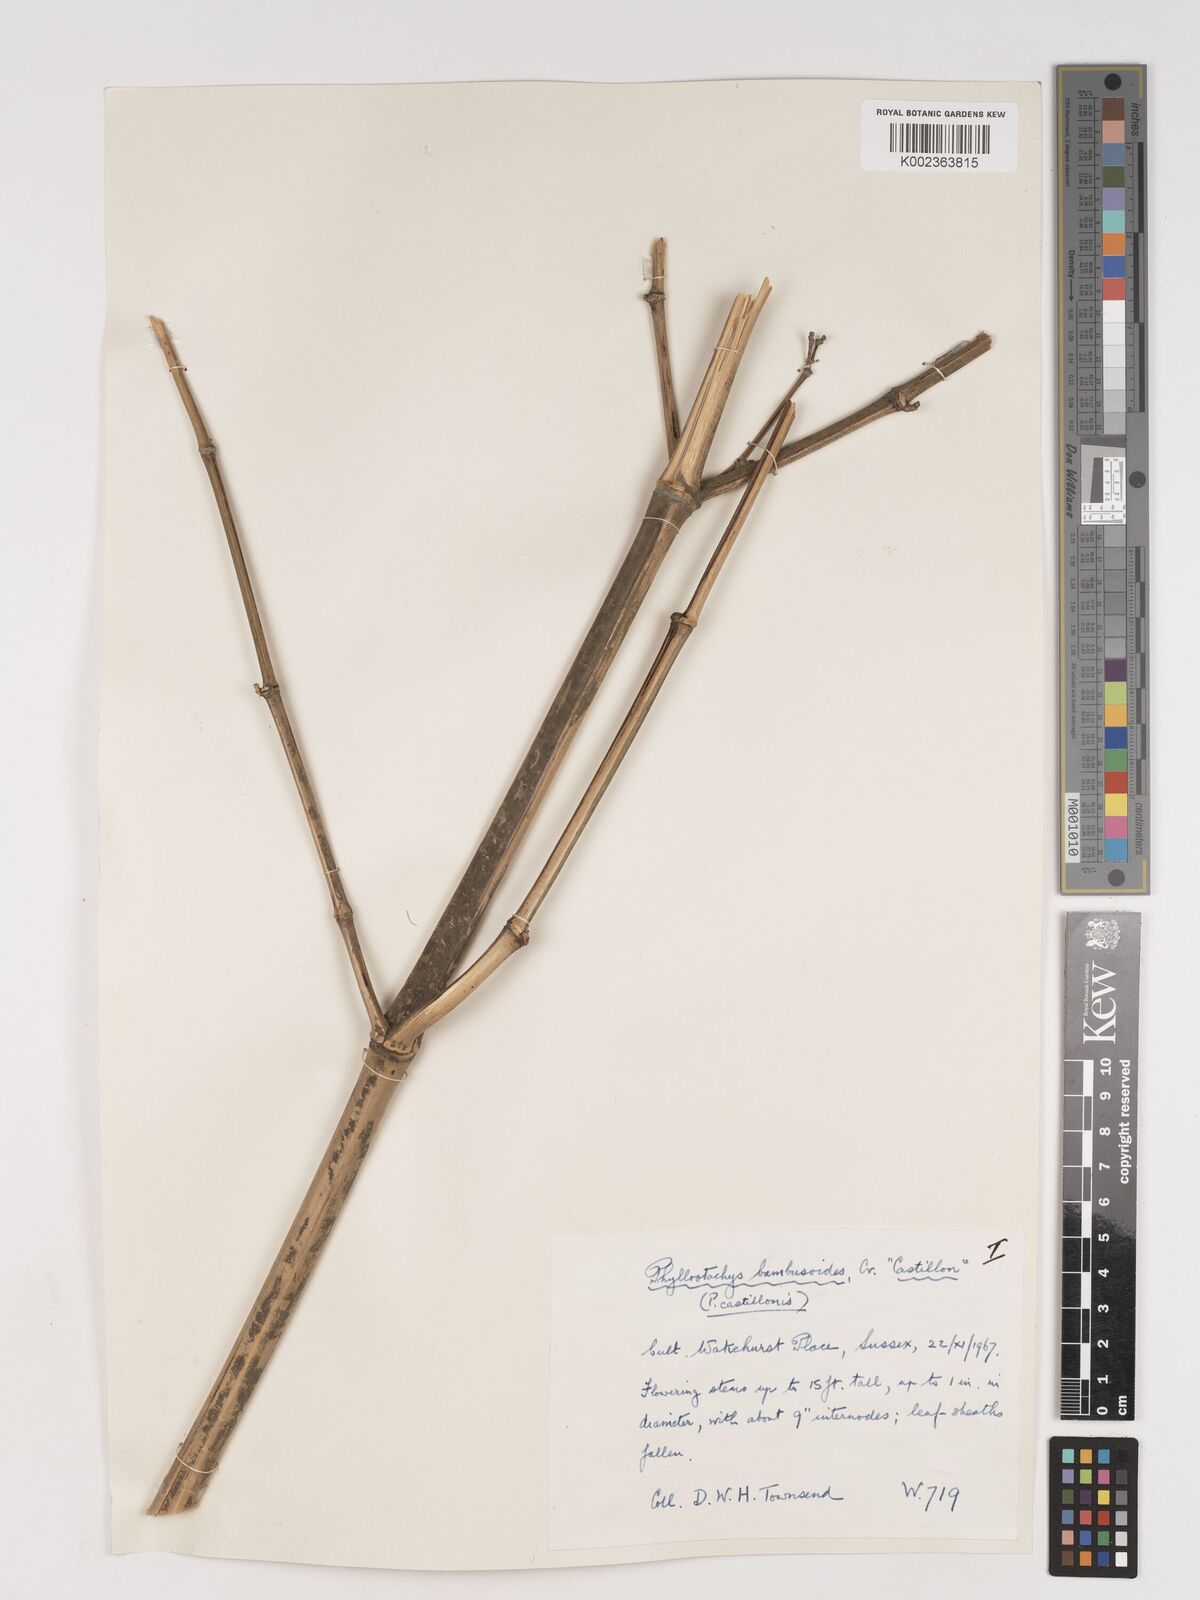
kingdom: Plantae
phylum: Tracheophyta
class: Liliopsida
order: Poales
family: Poaceae
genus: Phyllostachys
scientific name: Phyllostachys reticulata
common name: Bamboo
